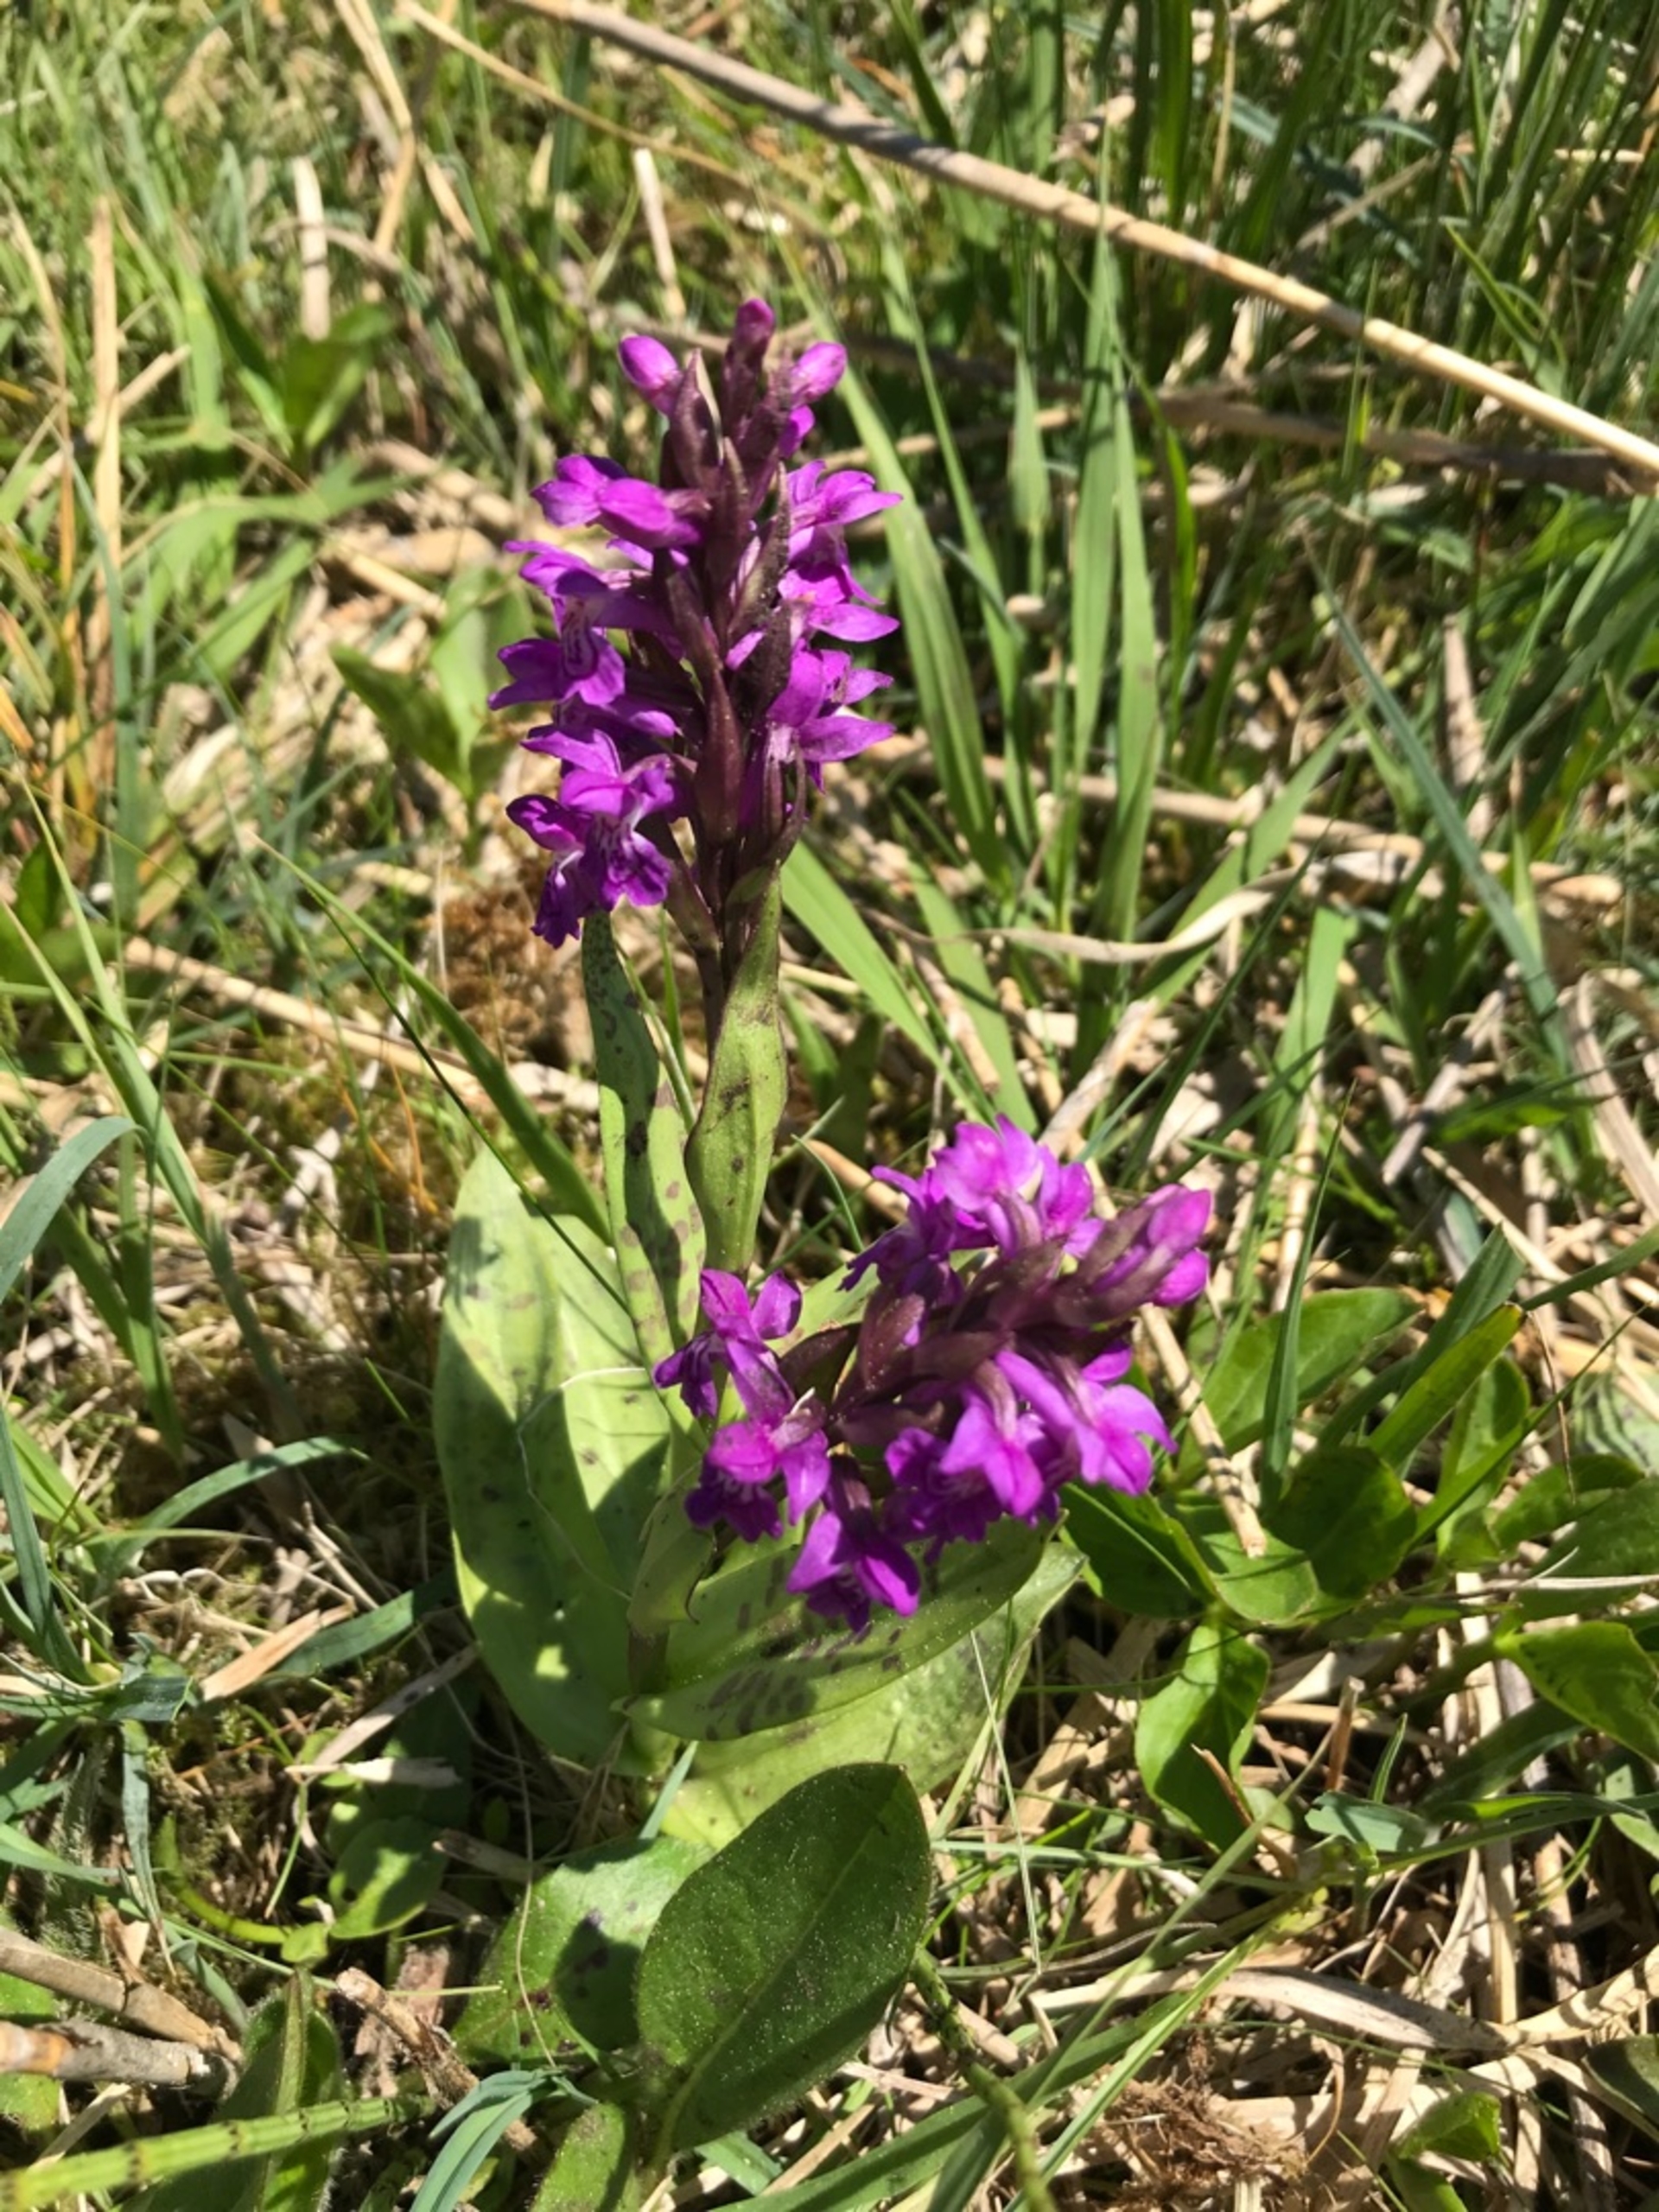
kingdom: Plantae
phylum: Tracheophyta
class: Liliopsida
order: Asparagales
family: Orchidaceae
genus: Dactylorhiza
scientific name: Dactylorhiza majalis
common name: Maj-gøgeurt
